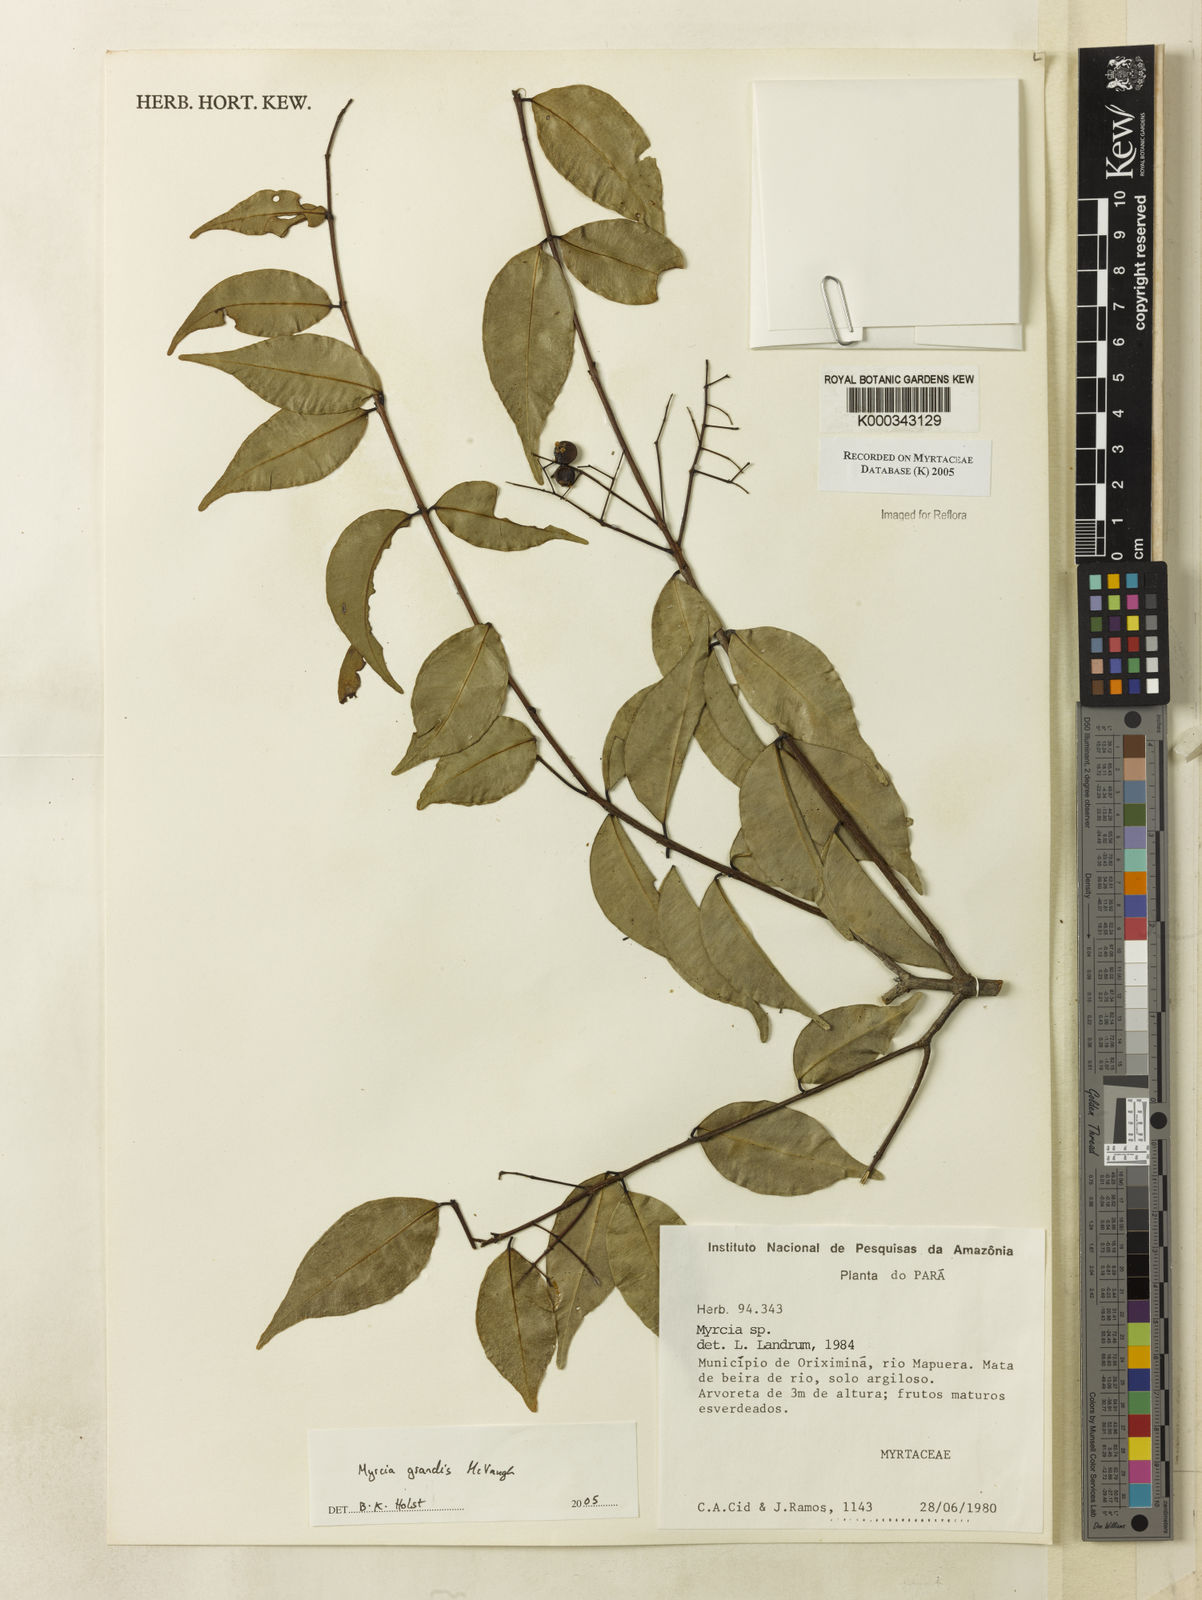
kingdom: Plantae
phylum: Tracheophyta
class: Magnoliopsida
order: Myrtales
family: Myrtaceae
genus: Myrcia
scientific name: Myrcia grandis
